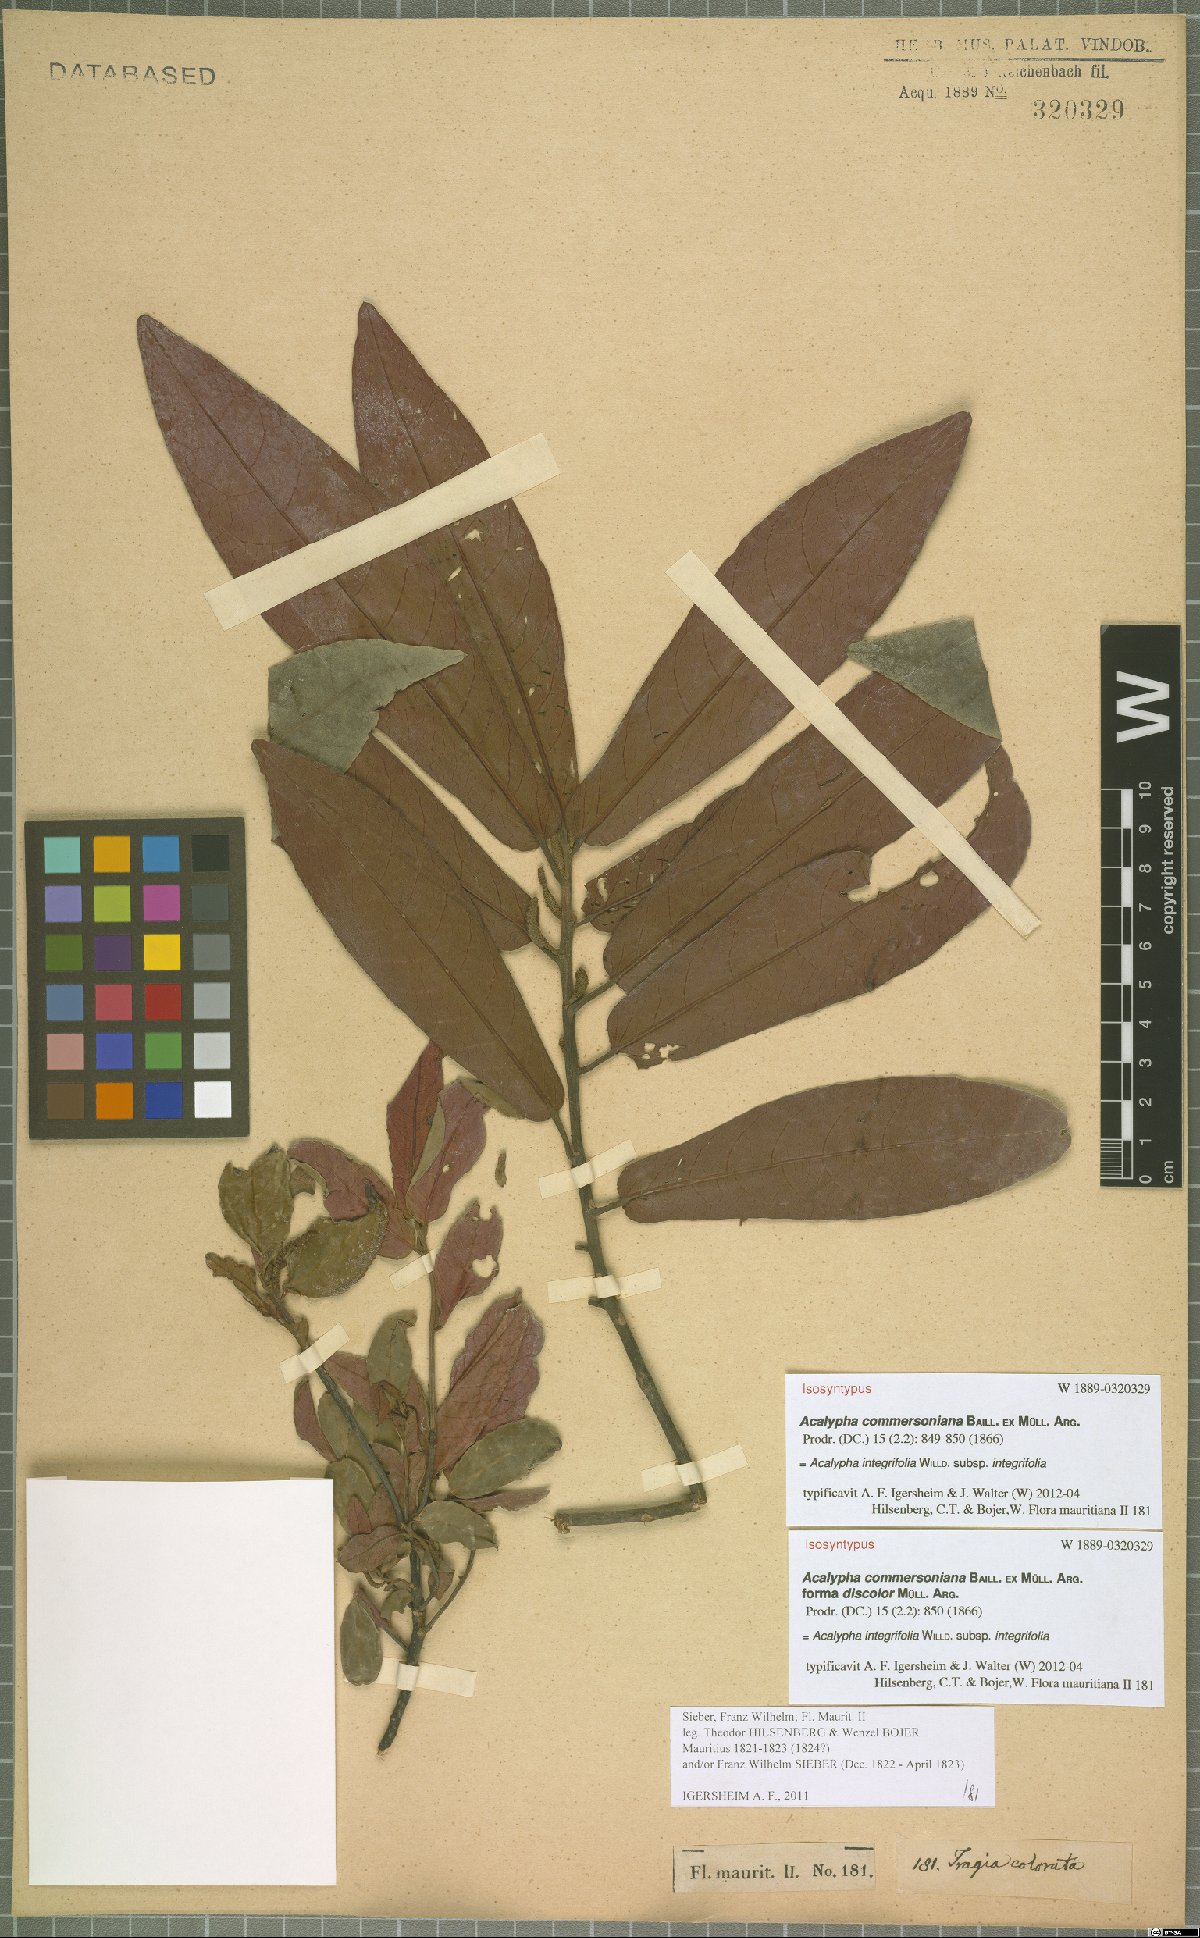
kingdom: Plantae
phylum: Tracheophyta
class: Magnoliopsida
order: Malpighiales
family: Euphorbiaceae
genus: Acalypha
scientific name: Acalypha integrifolia
